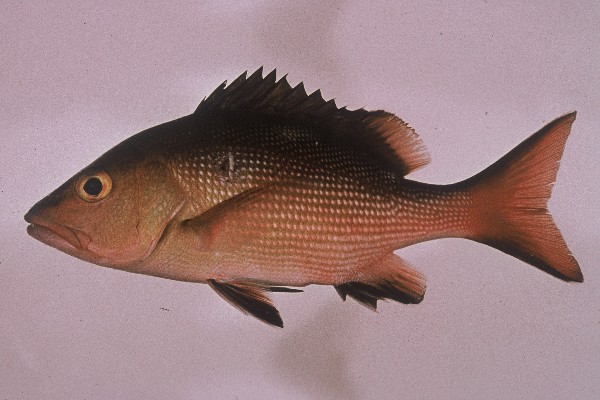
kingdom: Animalia
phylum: Chordata
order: Perciformes
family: Lutjanidae
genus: Lutjanus
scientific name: Lutjanus bohar
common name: Red bass
